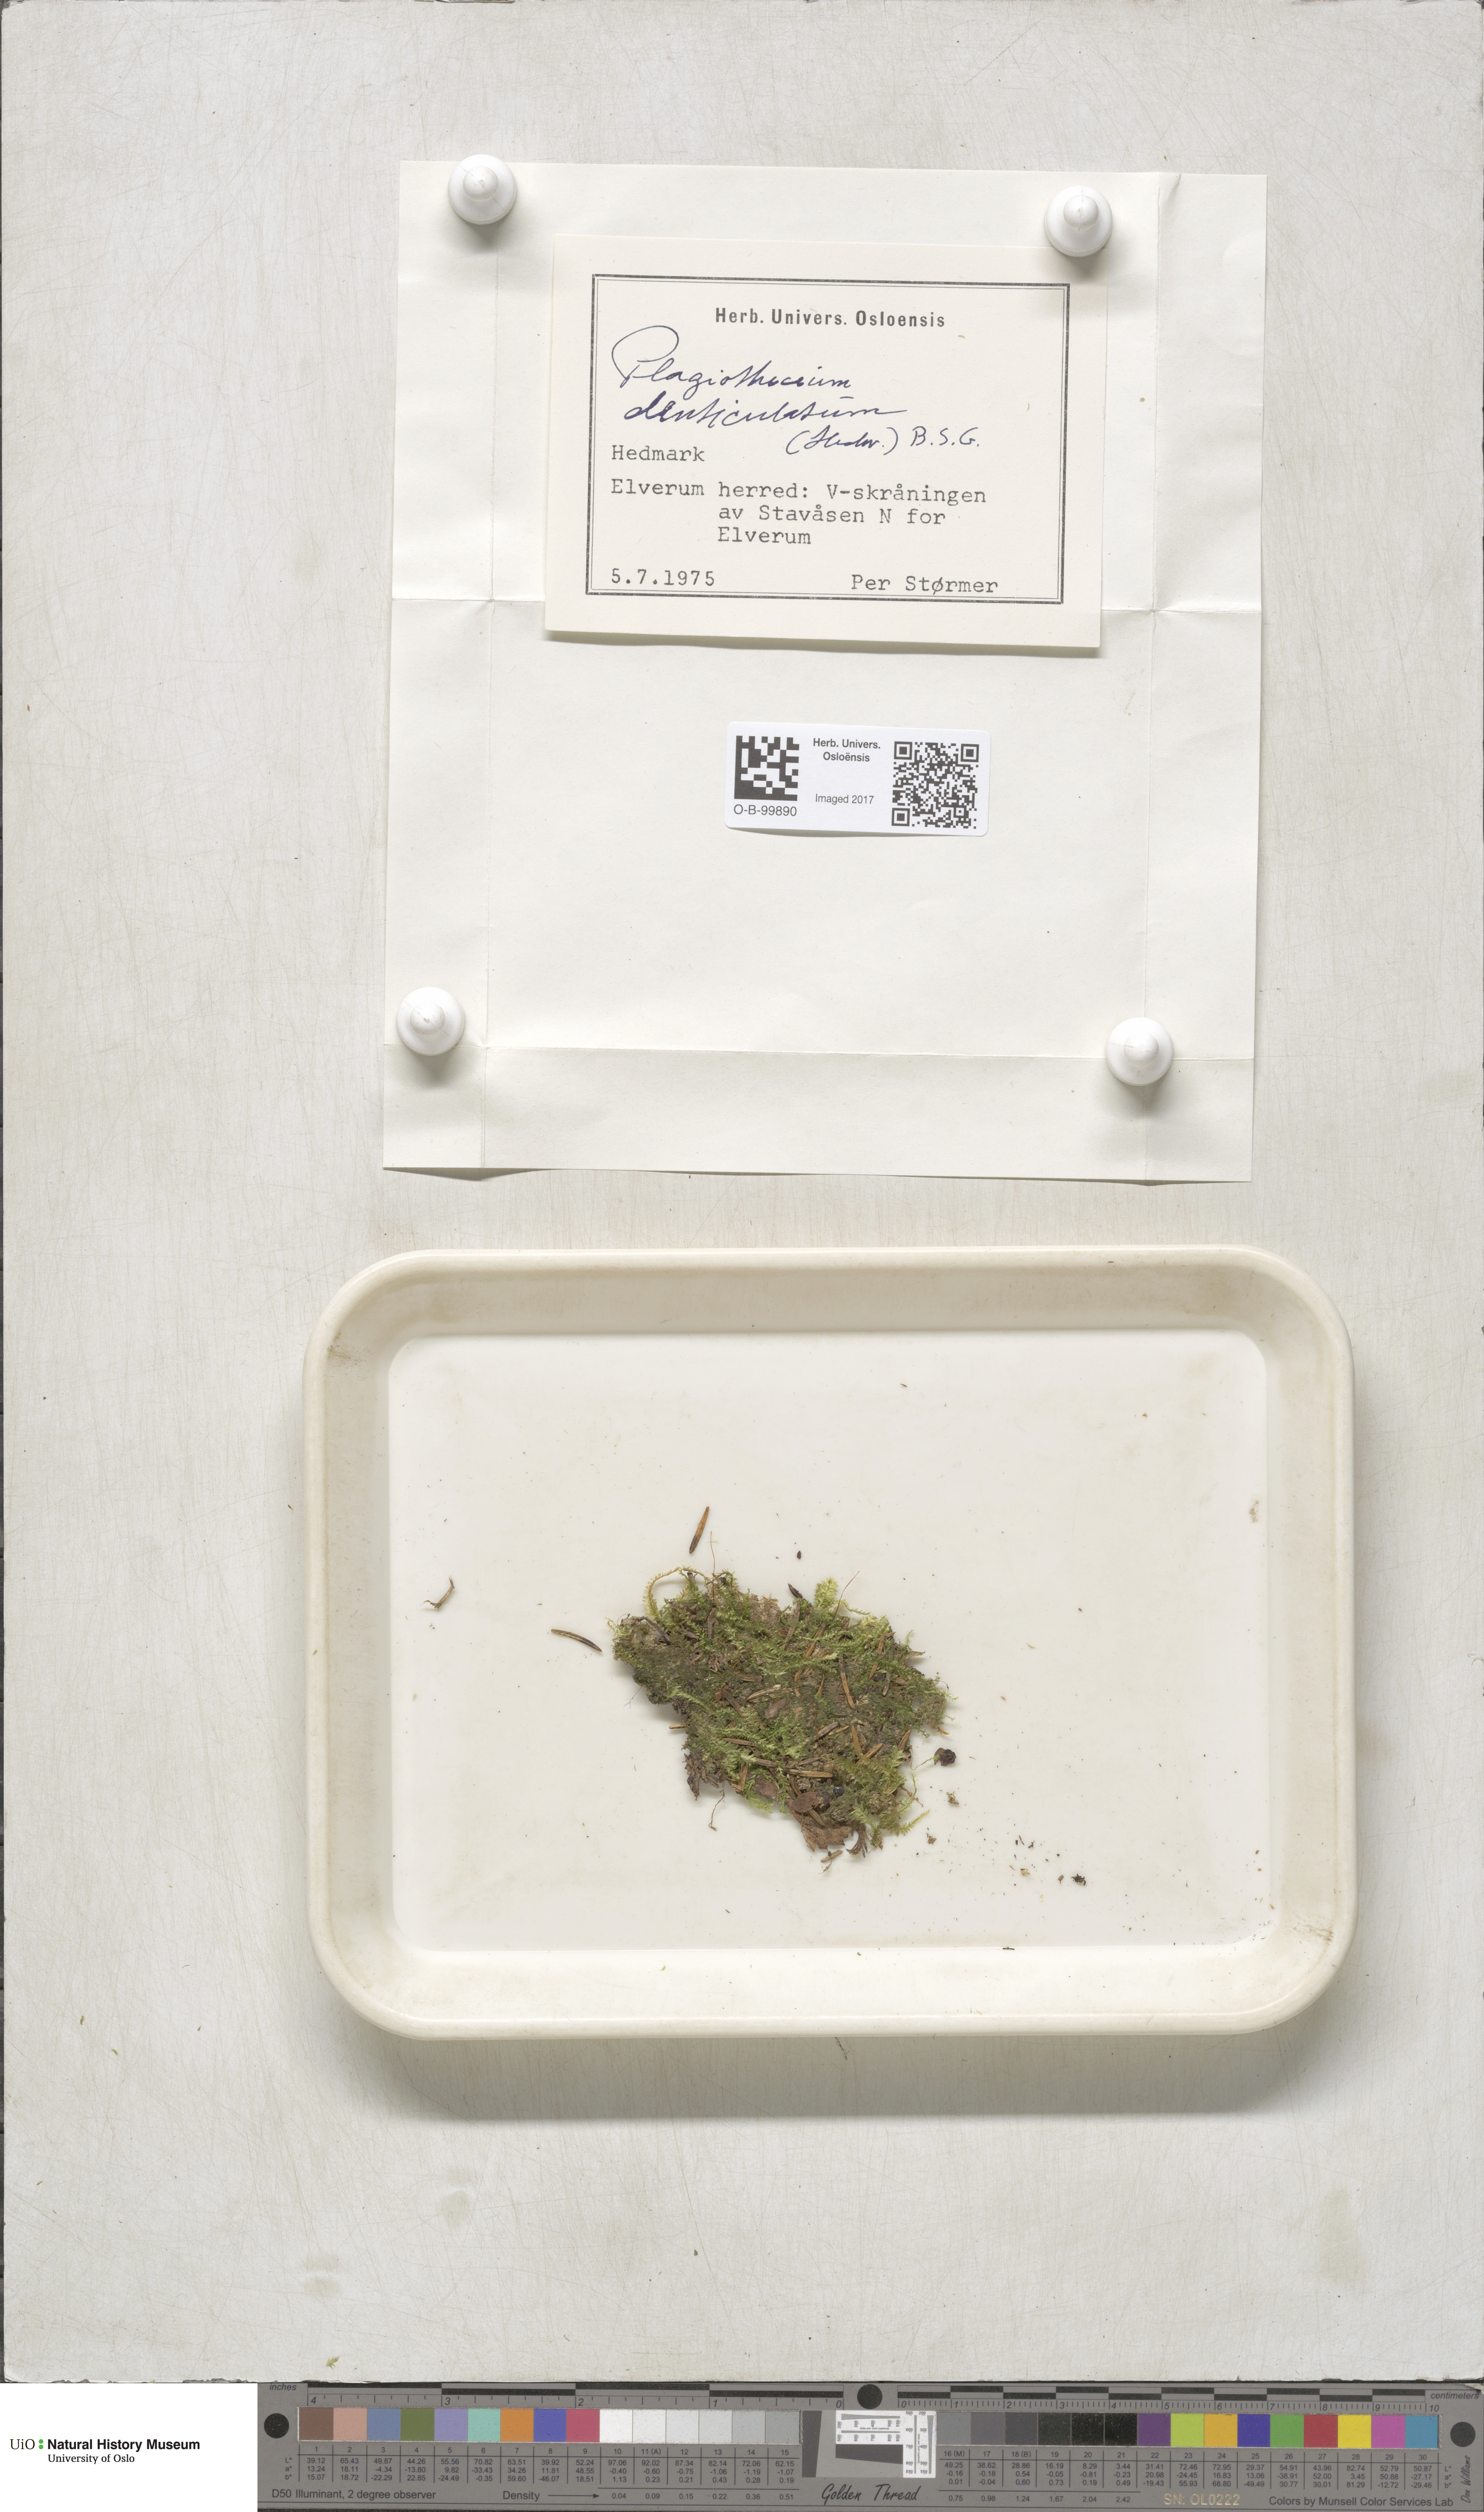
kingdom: Plantae
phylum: Bryophyta
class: Bryopsida
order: Hypnales
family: Plagiotheciaceae
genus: Plagiothecium
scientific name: Plagiothecium denticulatum
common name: Dented silk moss
